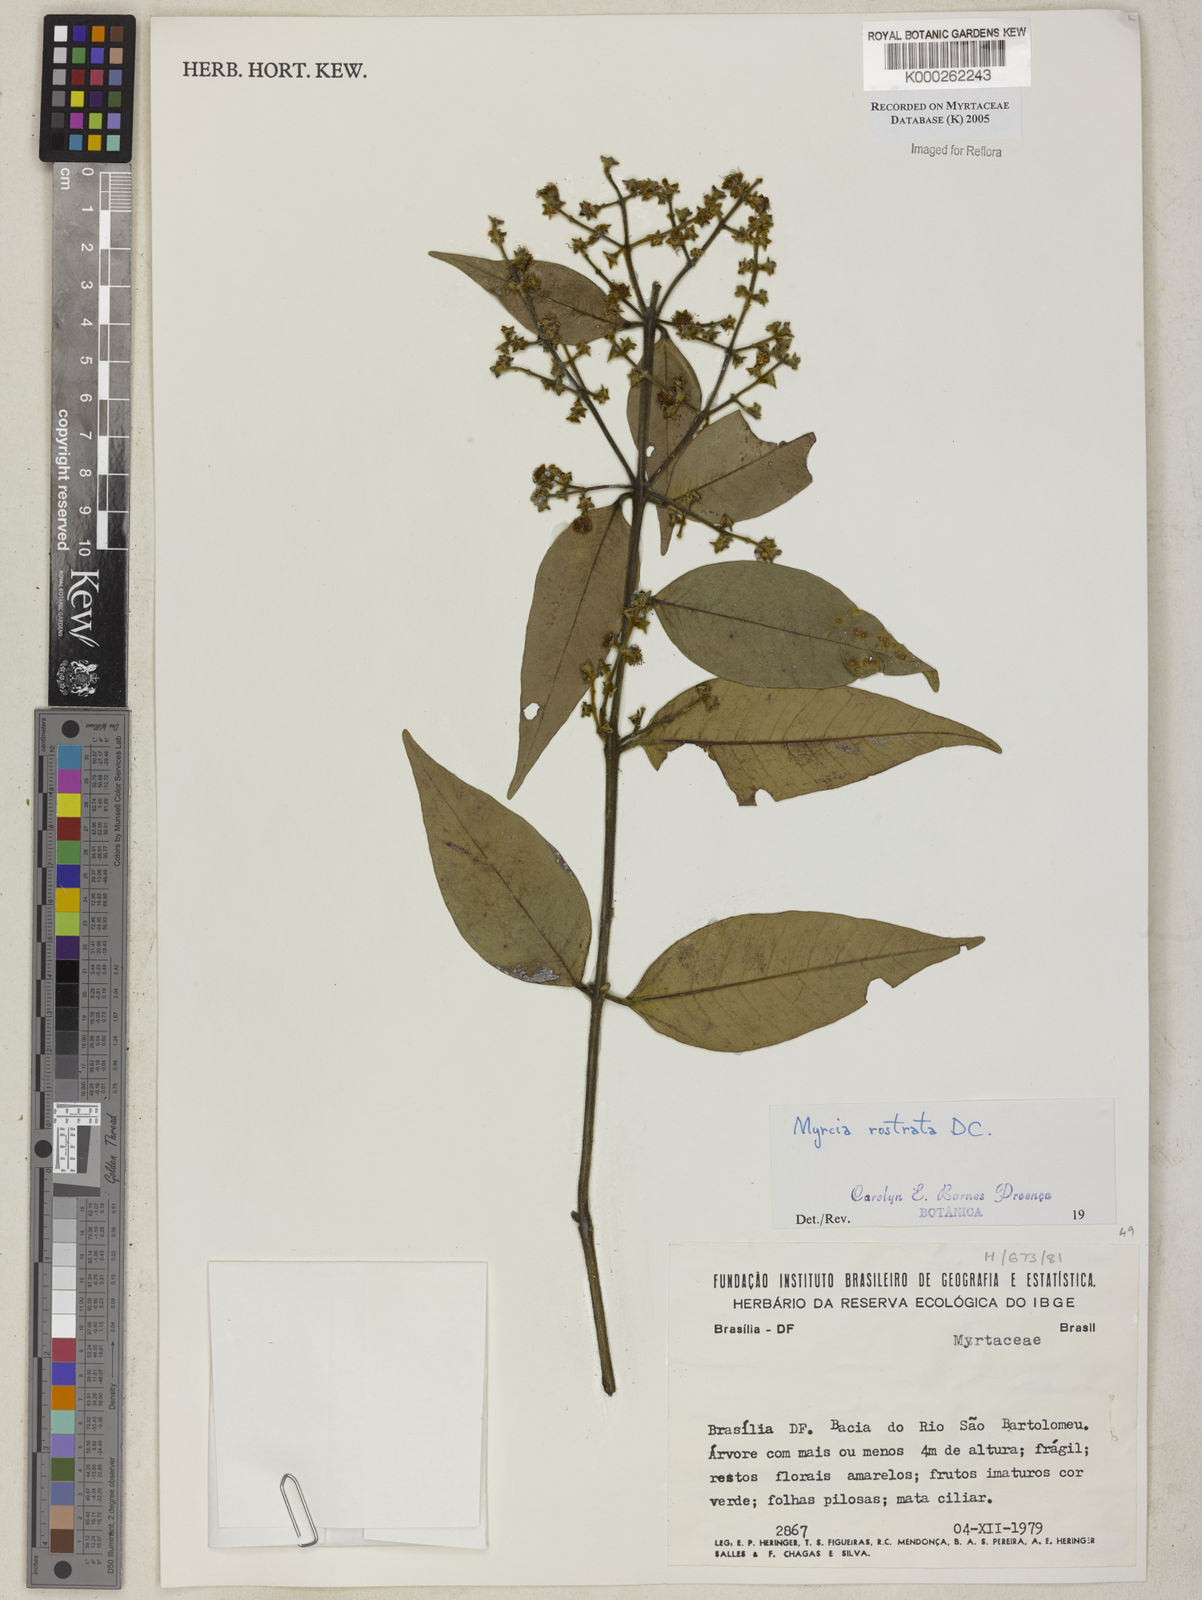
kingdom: Plantae
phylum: Tracheophyta
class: Magnoliopsida
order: Myrtales
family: Myrtaceae
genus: Myrcia
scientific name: Myrcia splendens
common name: Surinam cherry
